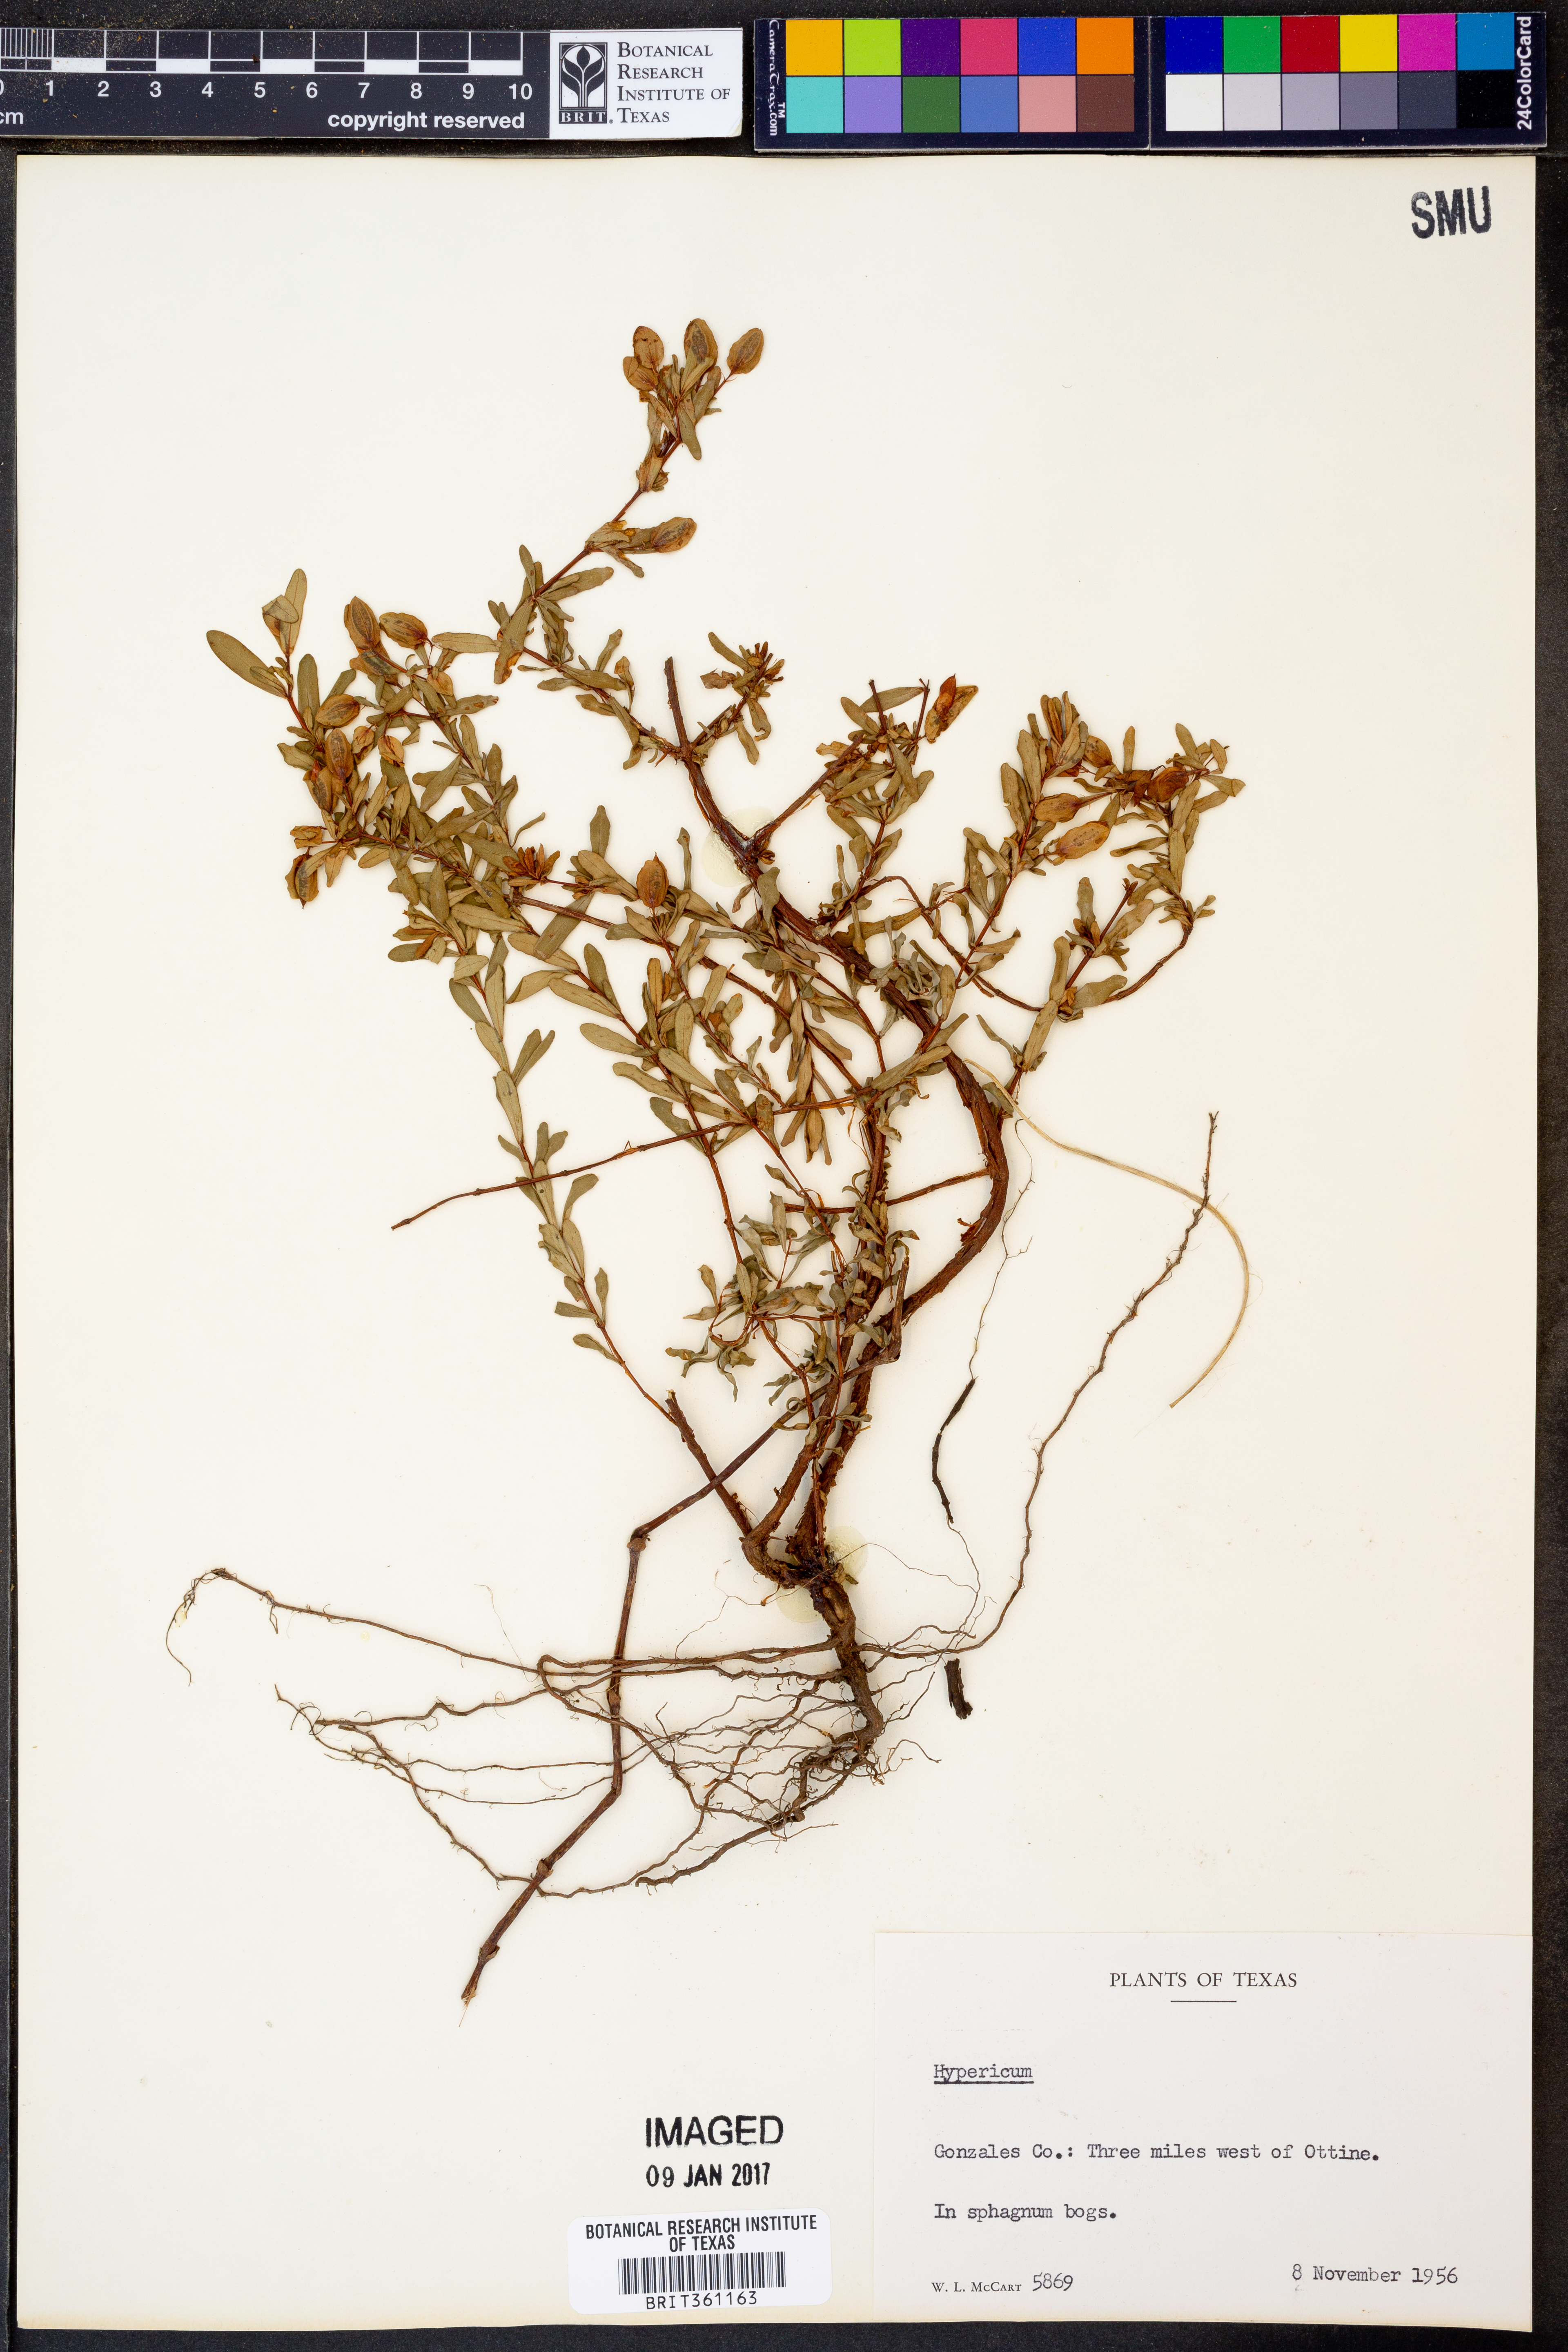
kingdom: Plantae
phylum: Tracheophyta
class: Magnoliopsida
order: Malpighiales
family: Hypericaceae
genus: Hypericum
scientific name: Hypericum
